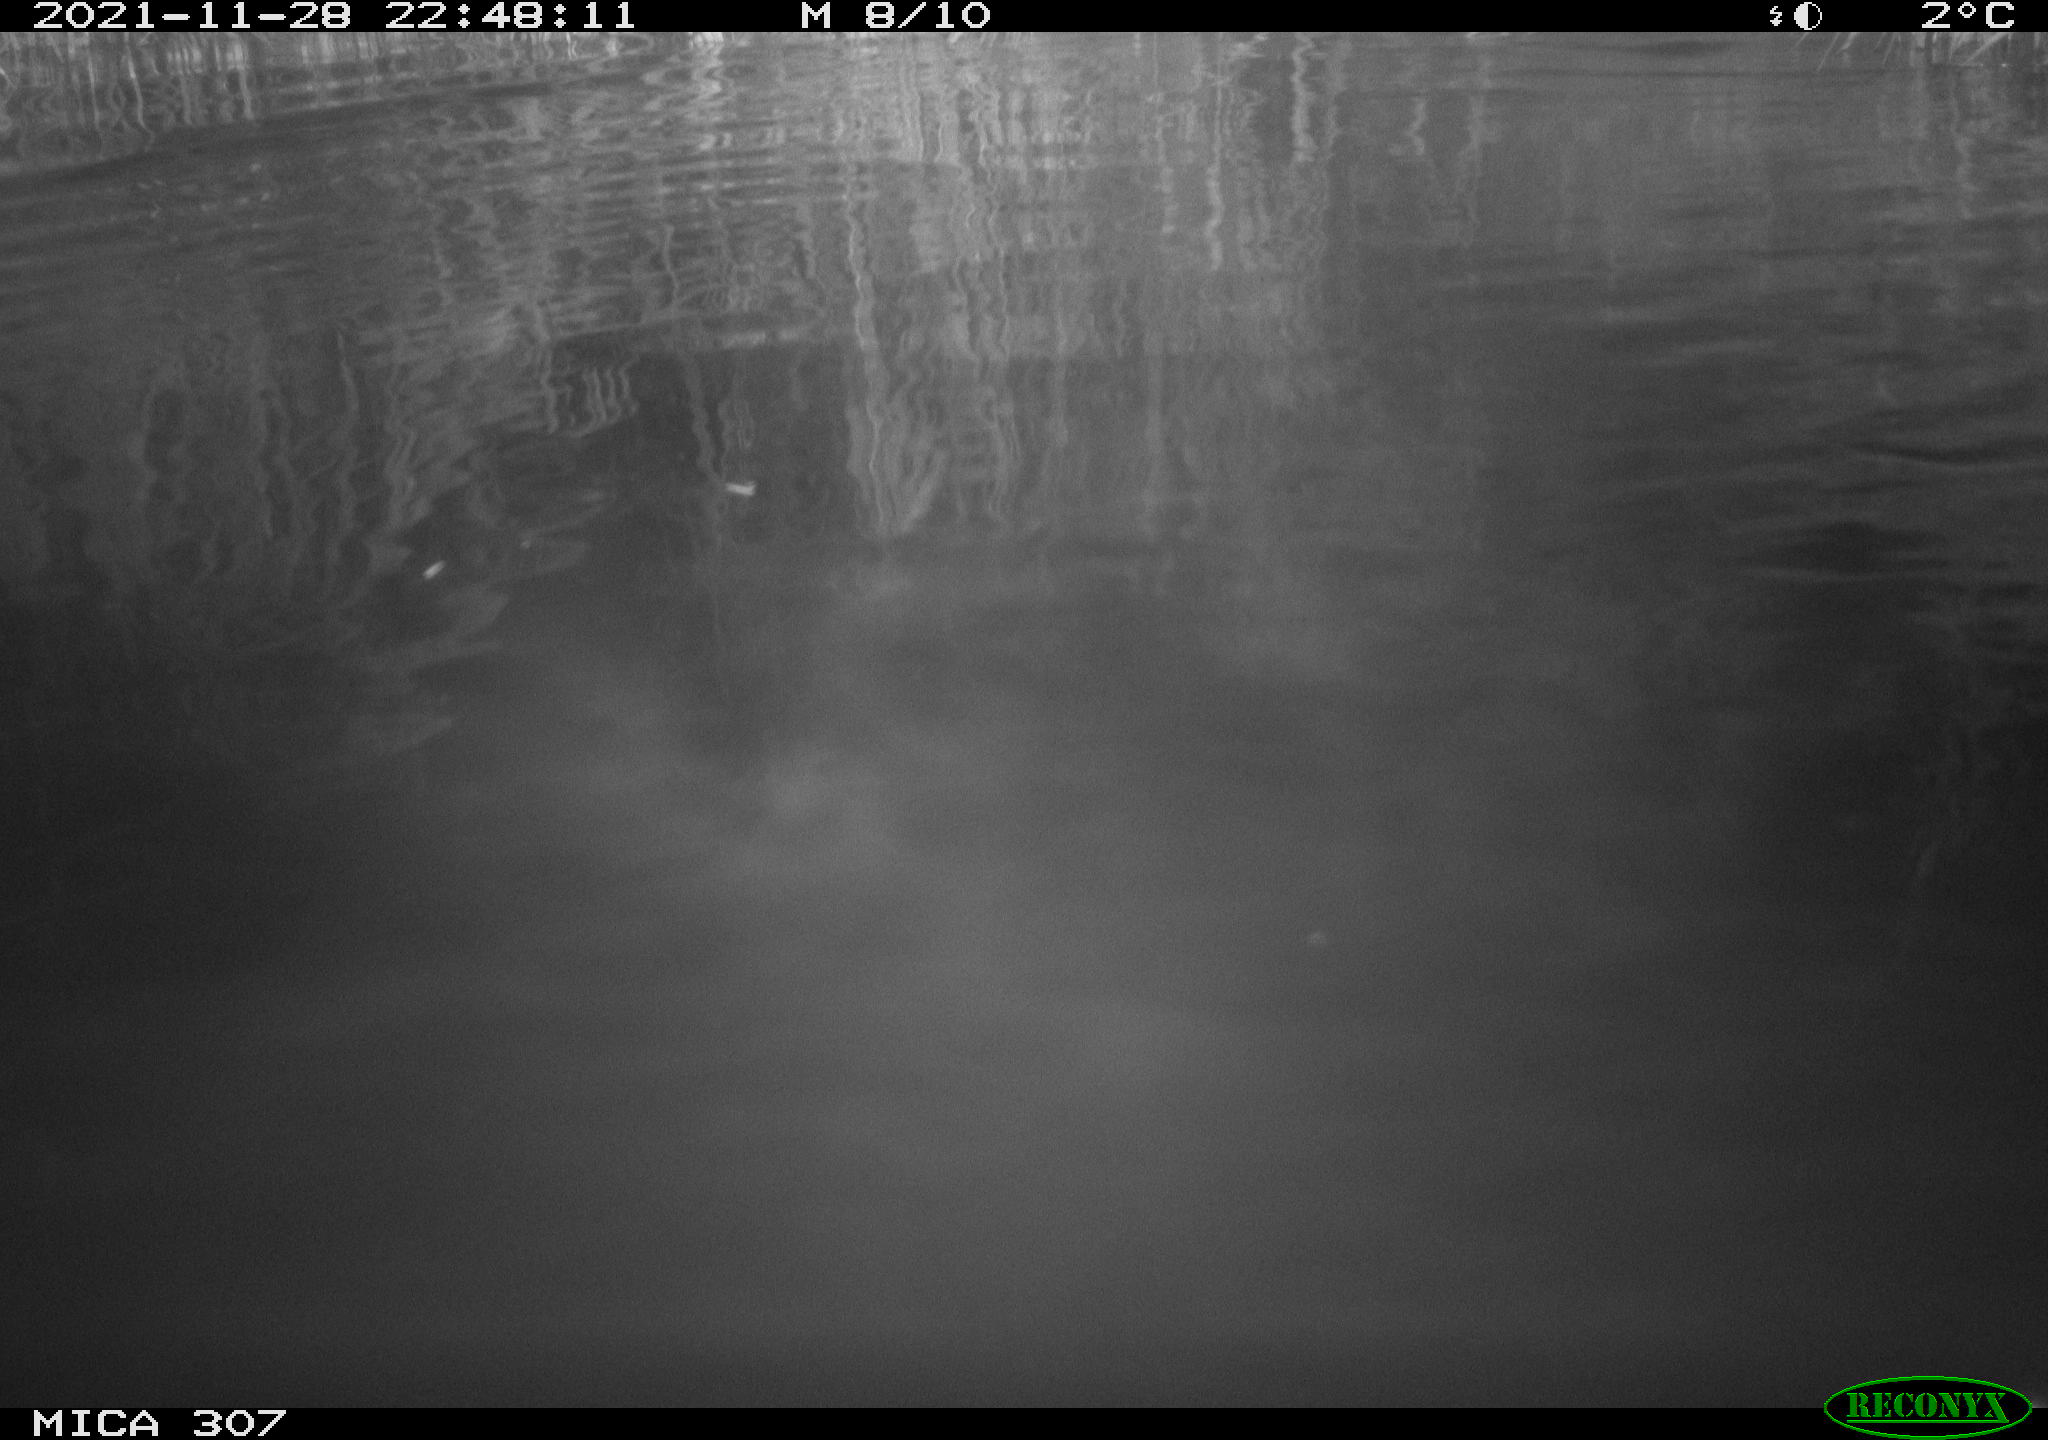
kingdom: Animalia
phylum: Chordata
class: Mammalia
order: Rodentia
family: Cricetidae
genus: Ondatra
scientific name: Ondatra zibethicus
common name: Muskrat
